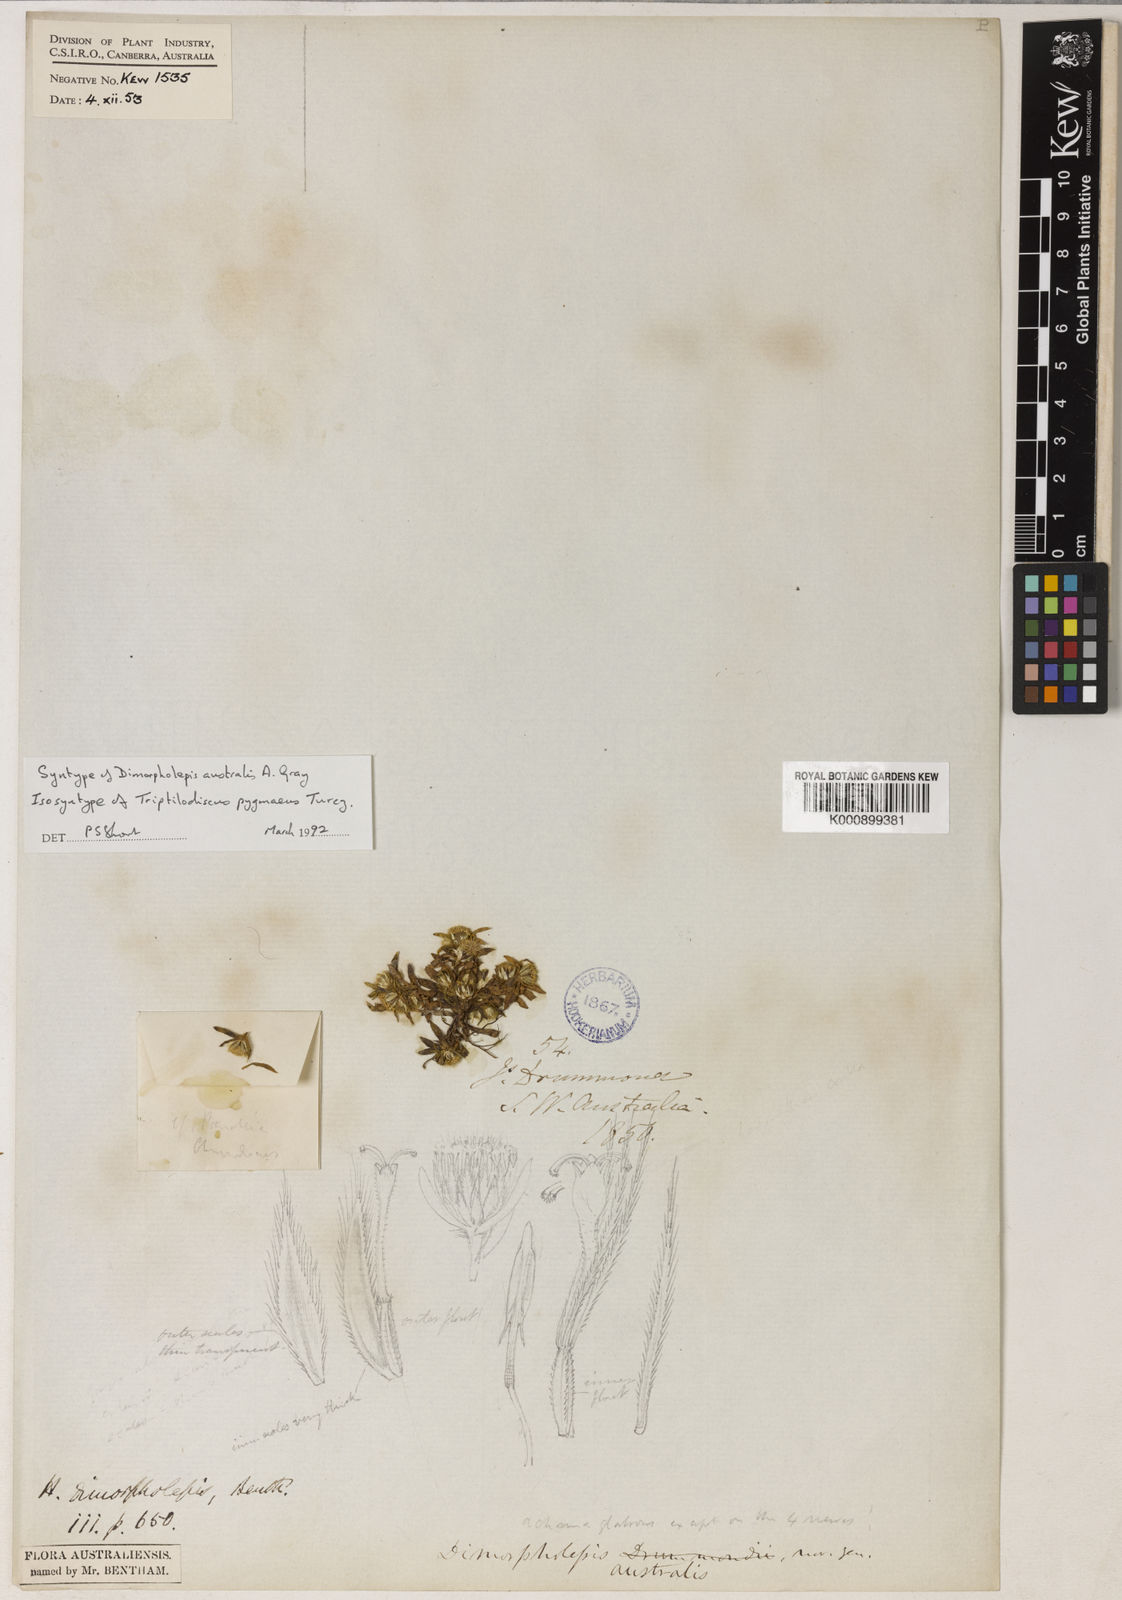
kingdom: Plantae
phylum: Tracheophyta
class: Magnoliopsida
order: Asterales
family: Asteraceae
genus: Triptilodiscus
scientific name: Triptilodiscus pygmaeus
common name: Common sunray
